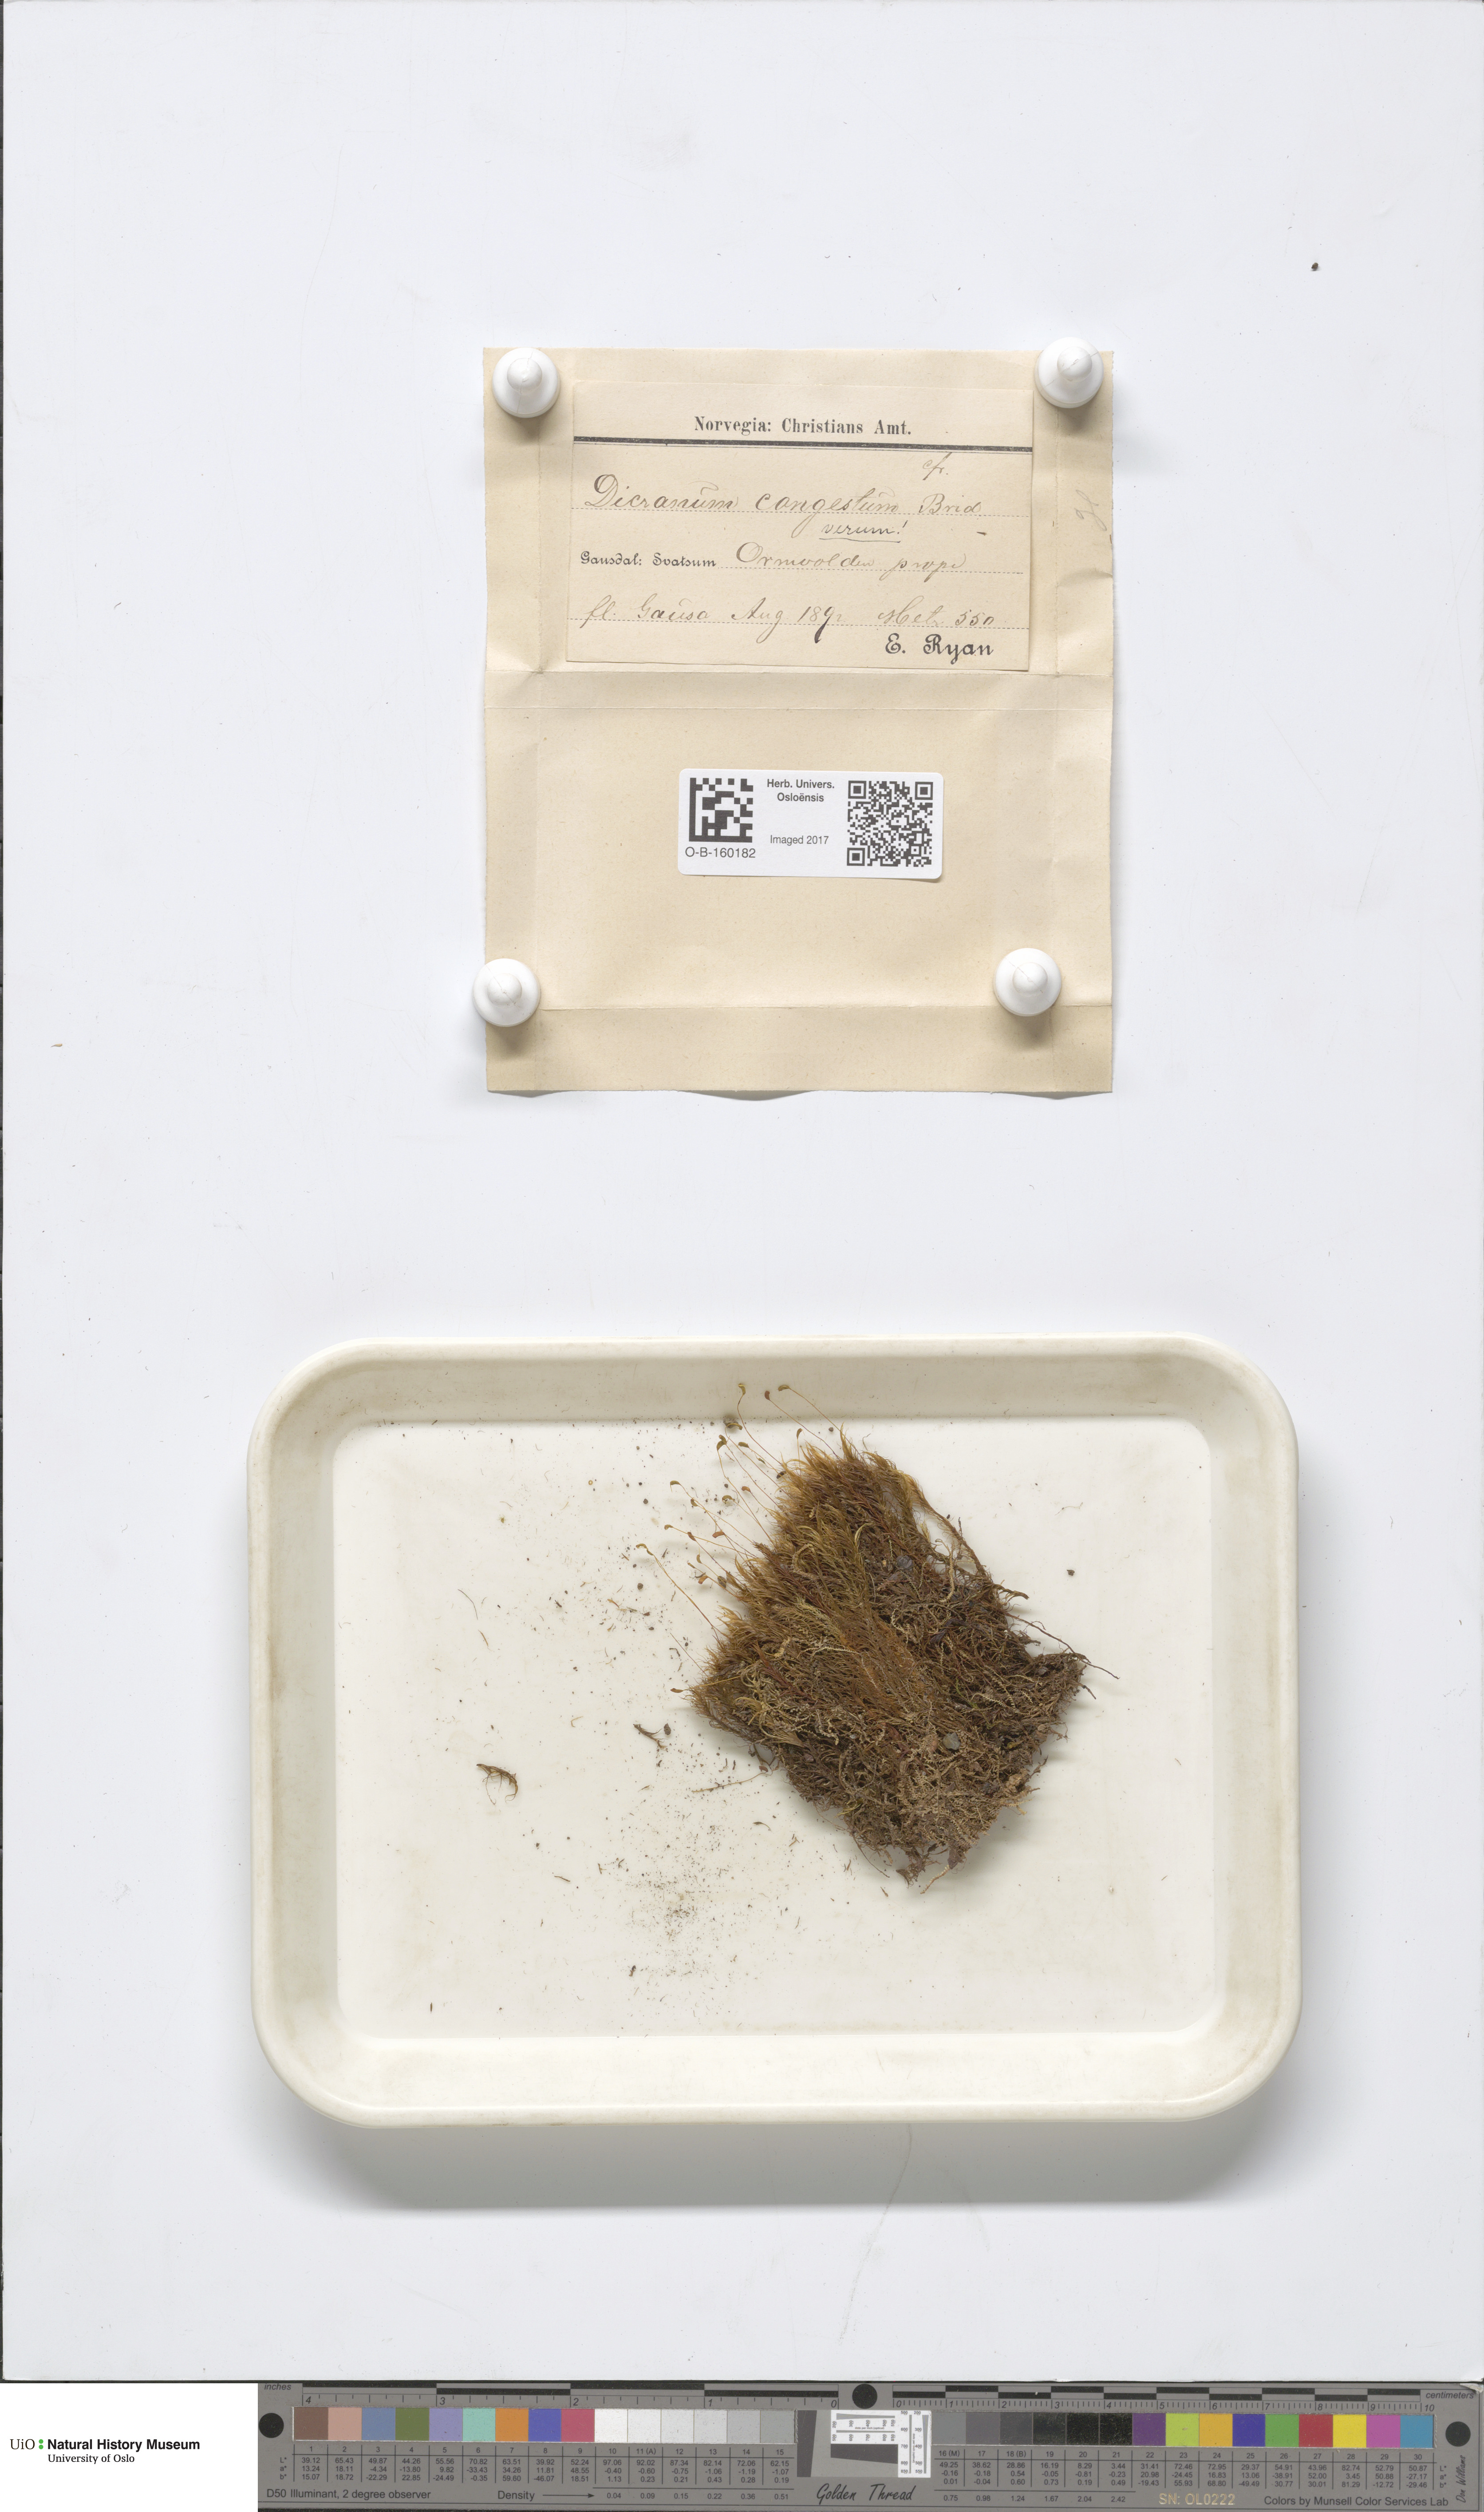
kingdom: Plantae
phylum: Bryophyta
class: Bryopsida
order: Dicranales
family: Dicranaceae
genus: Dicranum
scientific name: Dicranum flexicaule
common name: Bendy heron s-bill moss
